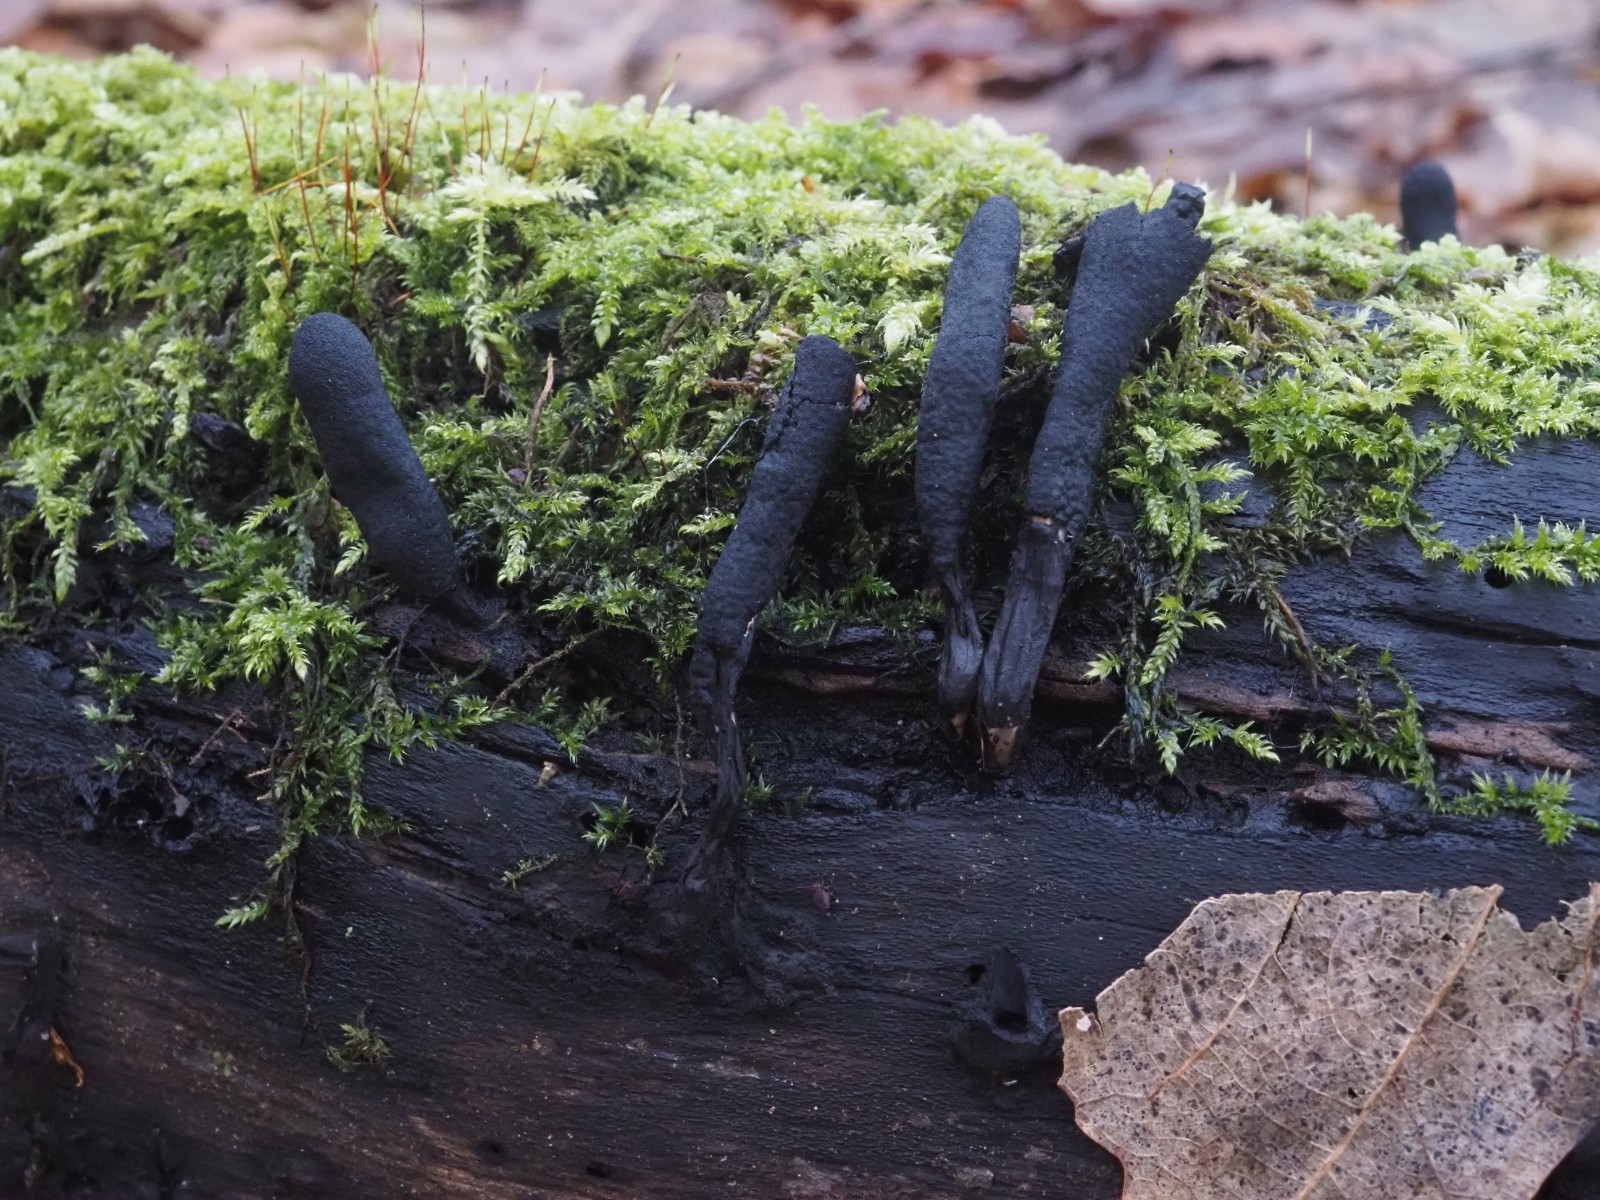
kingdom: Fungi
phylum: Ascomycota
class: Sordariomycetes
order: Xylariales
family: Xylariaceae
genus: Xylaria
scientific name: Xylaria longipes
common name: slank stødsvamp
